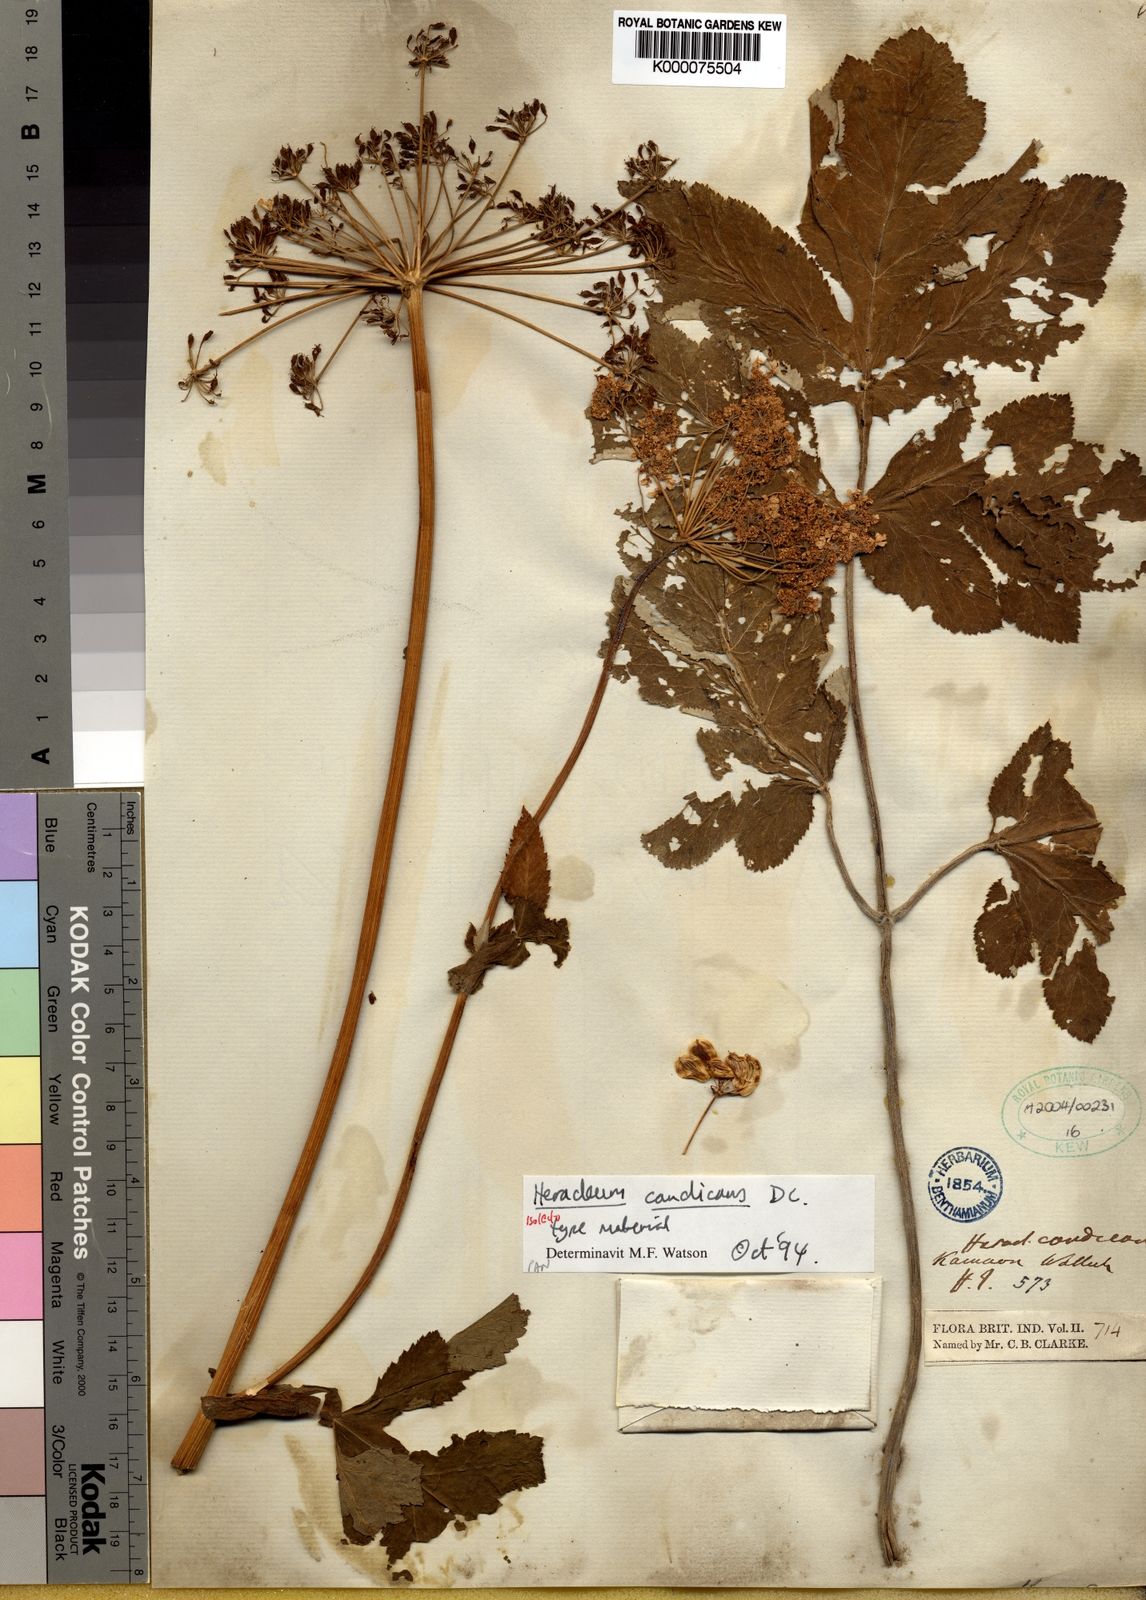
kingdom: Plantae
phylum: Tracheophyta
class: Magnoliopsida
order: Apiales
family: Apiaceae
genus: Tetrataenium
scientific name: Tetrataenium candicans
